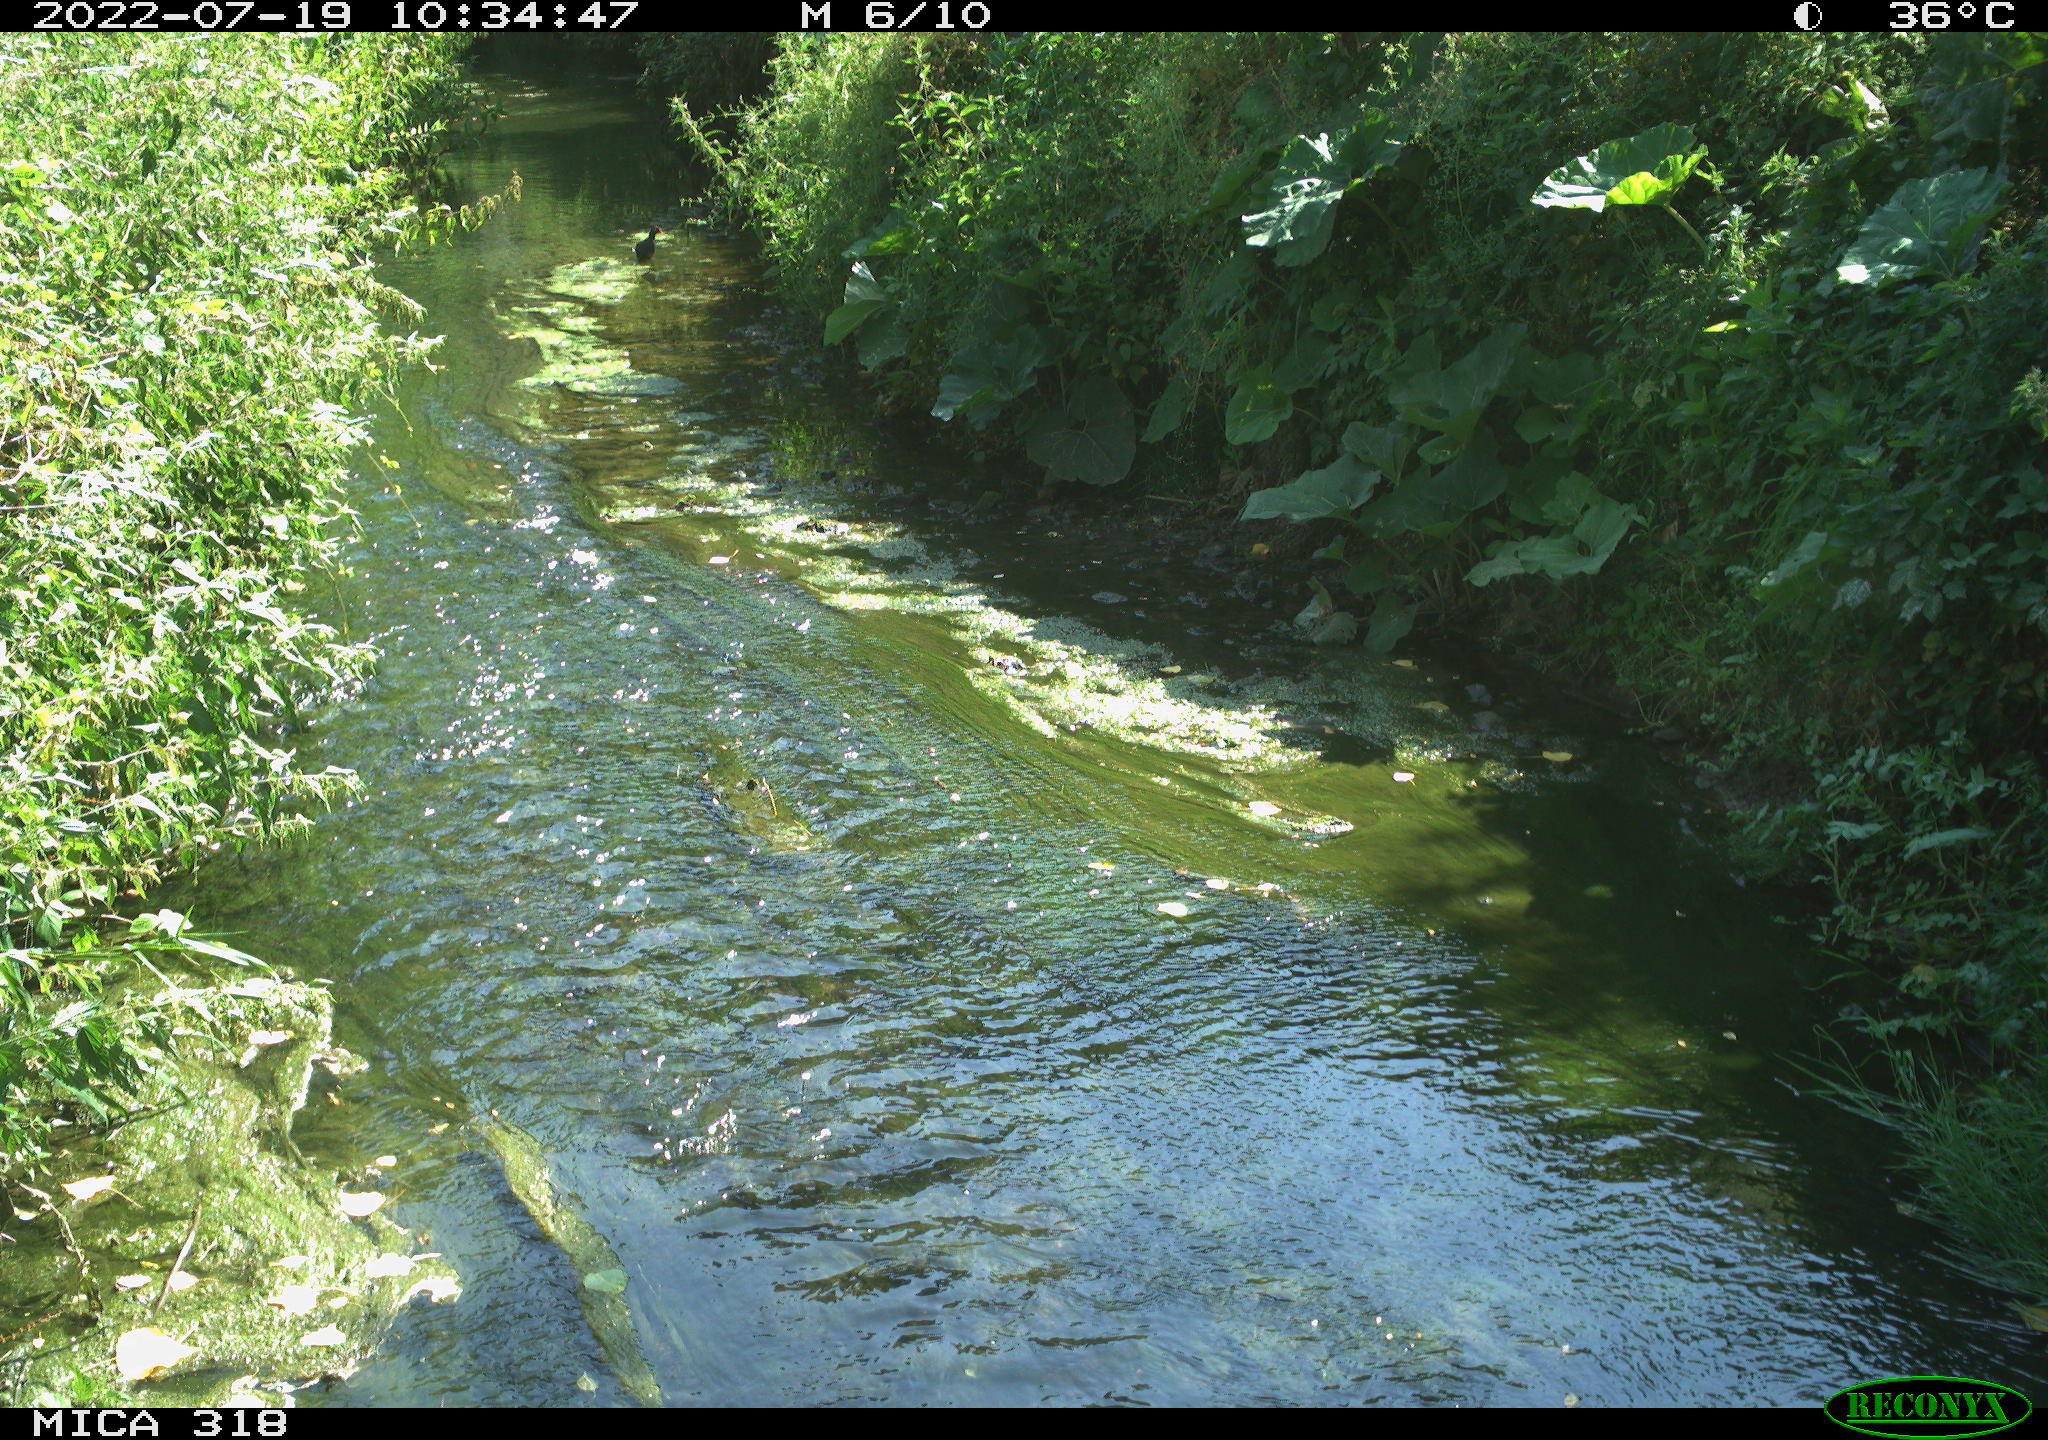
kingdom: Animalia
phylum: Chordata
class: Aves
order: Gruiformes
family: Rallidae
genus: Gallinula
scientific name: Gallinula chloropus
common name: Common moorhen
